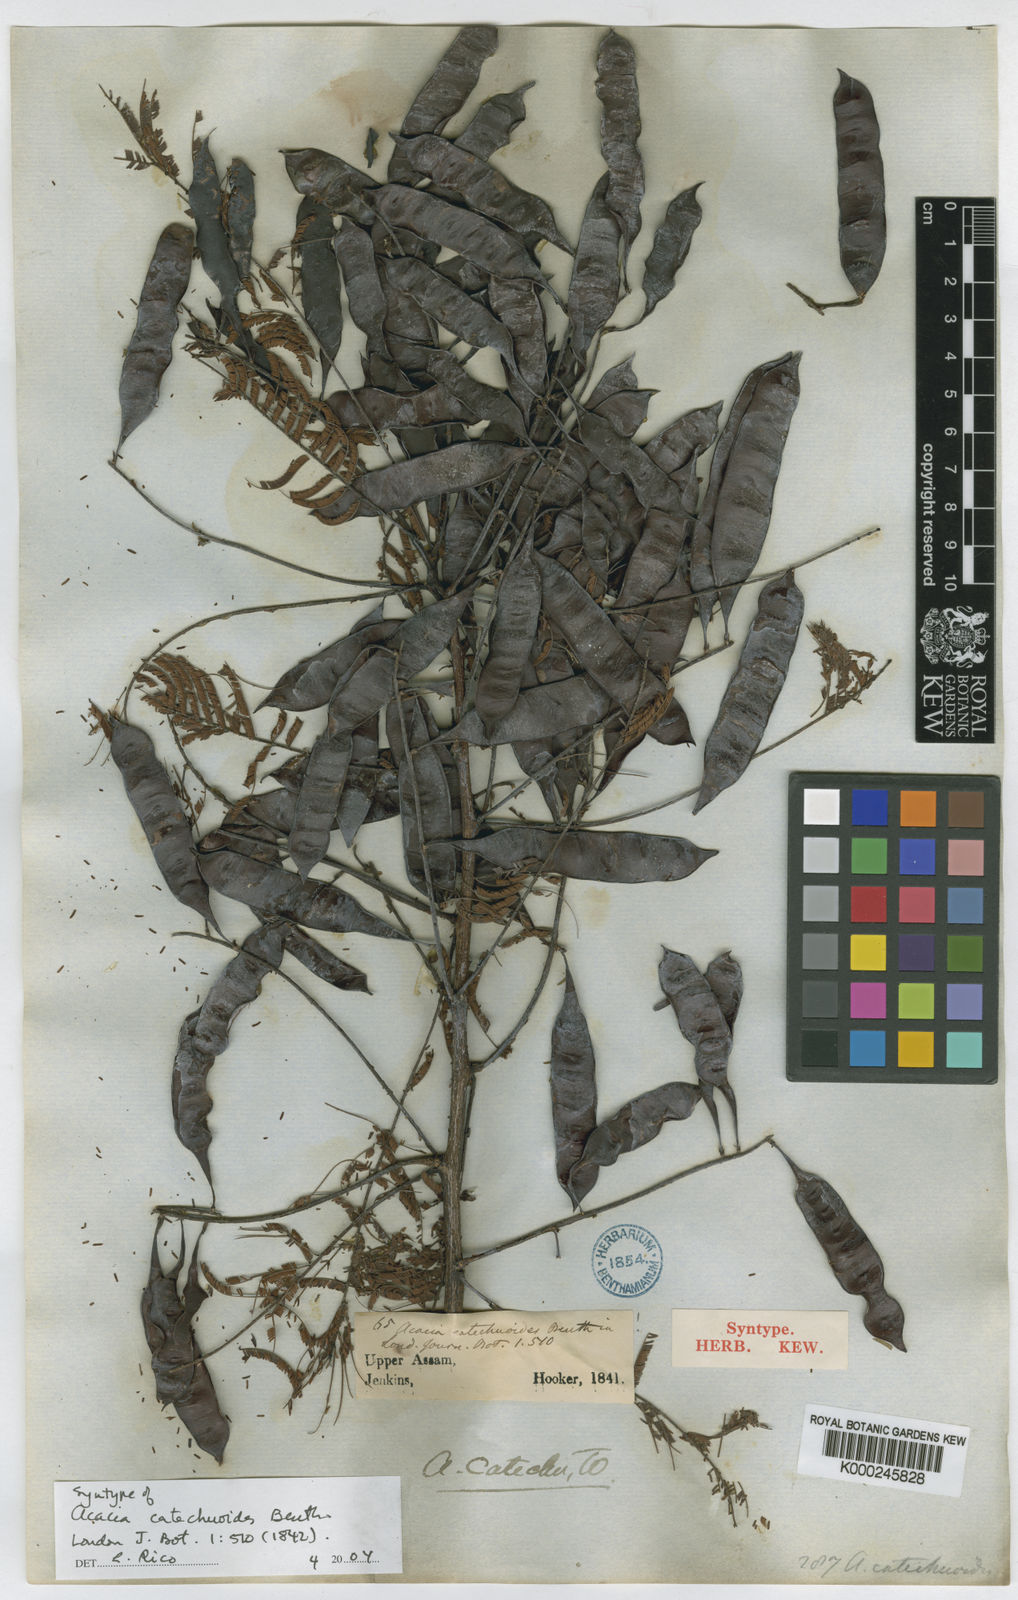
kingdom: Plantae
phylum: Tracheophyta
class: Magnoliopsida
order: Fabales
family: Fabaceae
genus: Senegalia
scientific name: Senegalia catechu
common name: Black cutch
